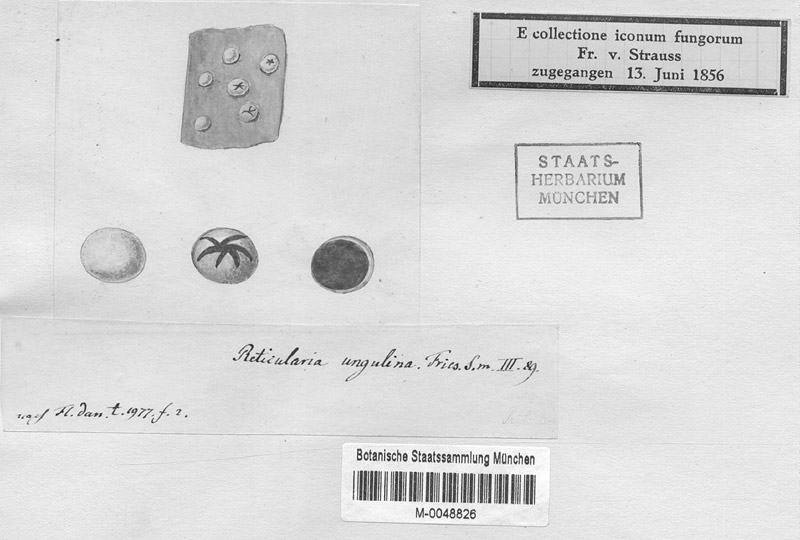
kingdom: Protozoa
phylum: Mycetozoa
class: Myxomycetes
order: Cribrariales
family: Tubiferaceae
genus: Licaethalium
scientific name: Licaethalium olivaceum
